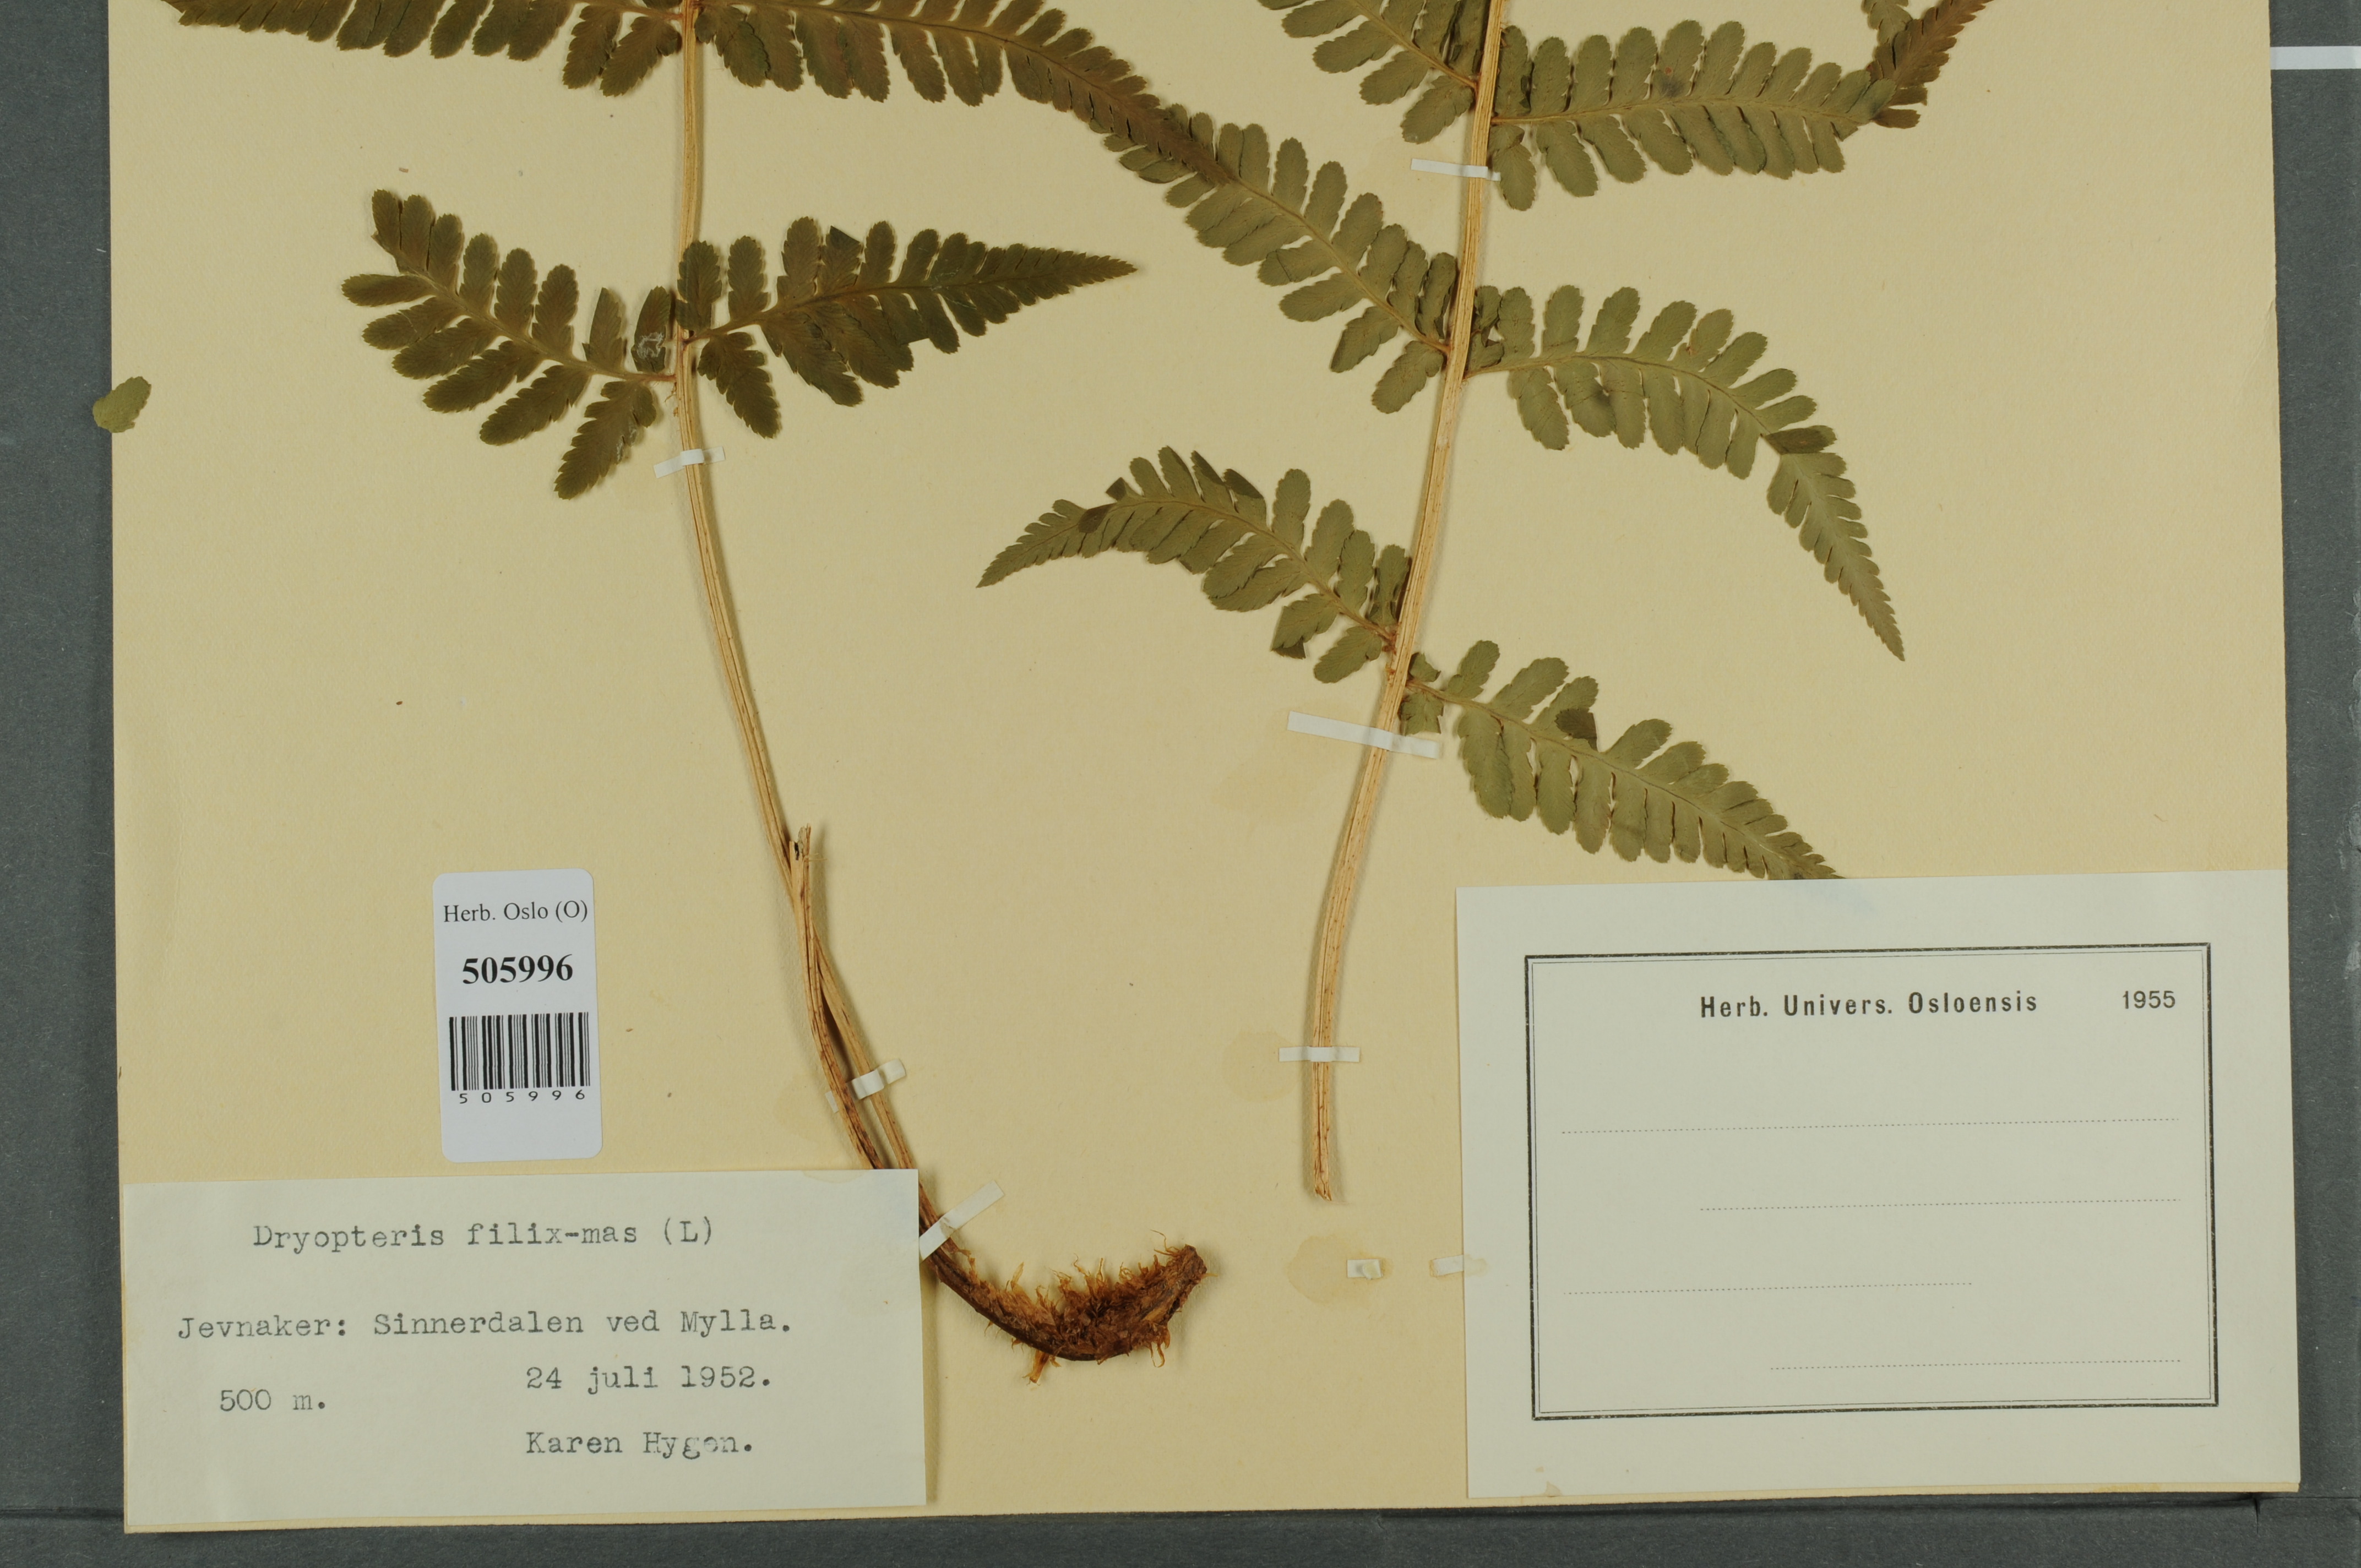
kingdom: Plantae
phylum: Tracheophyta
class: Polypodiopsida
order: Polypodiales
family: Dryopteridaceae
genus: Dryopteris
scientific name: Dryopteris filix-mas
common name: Male fern
